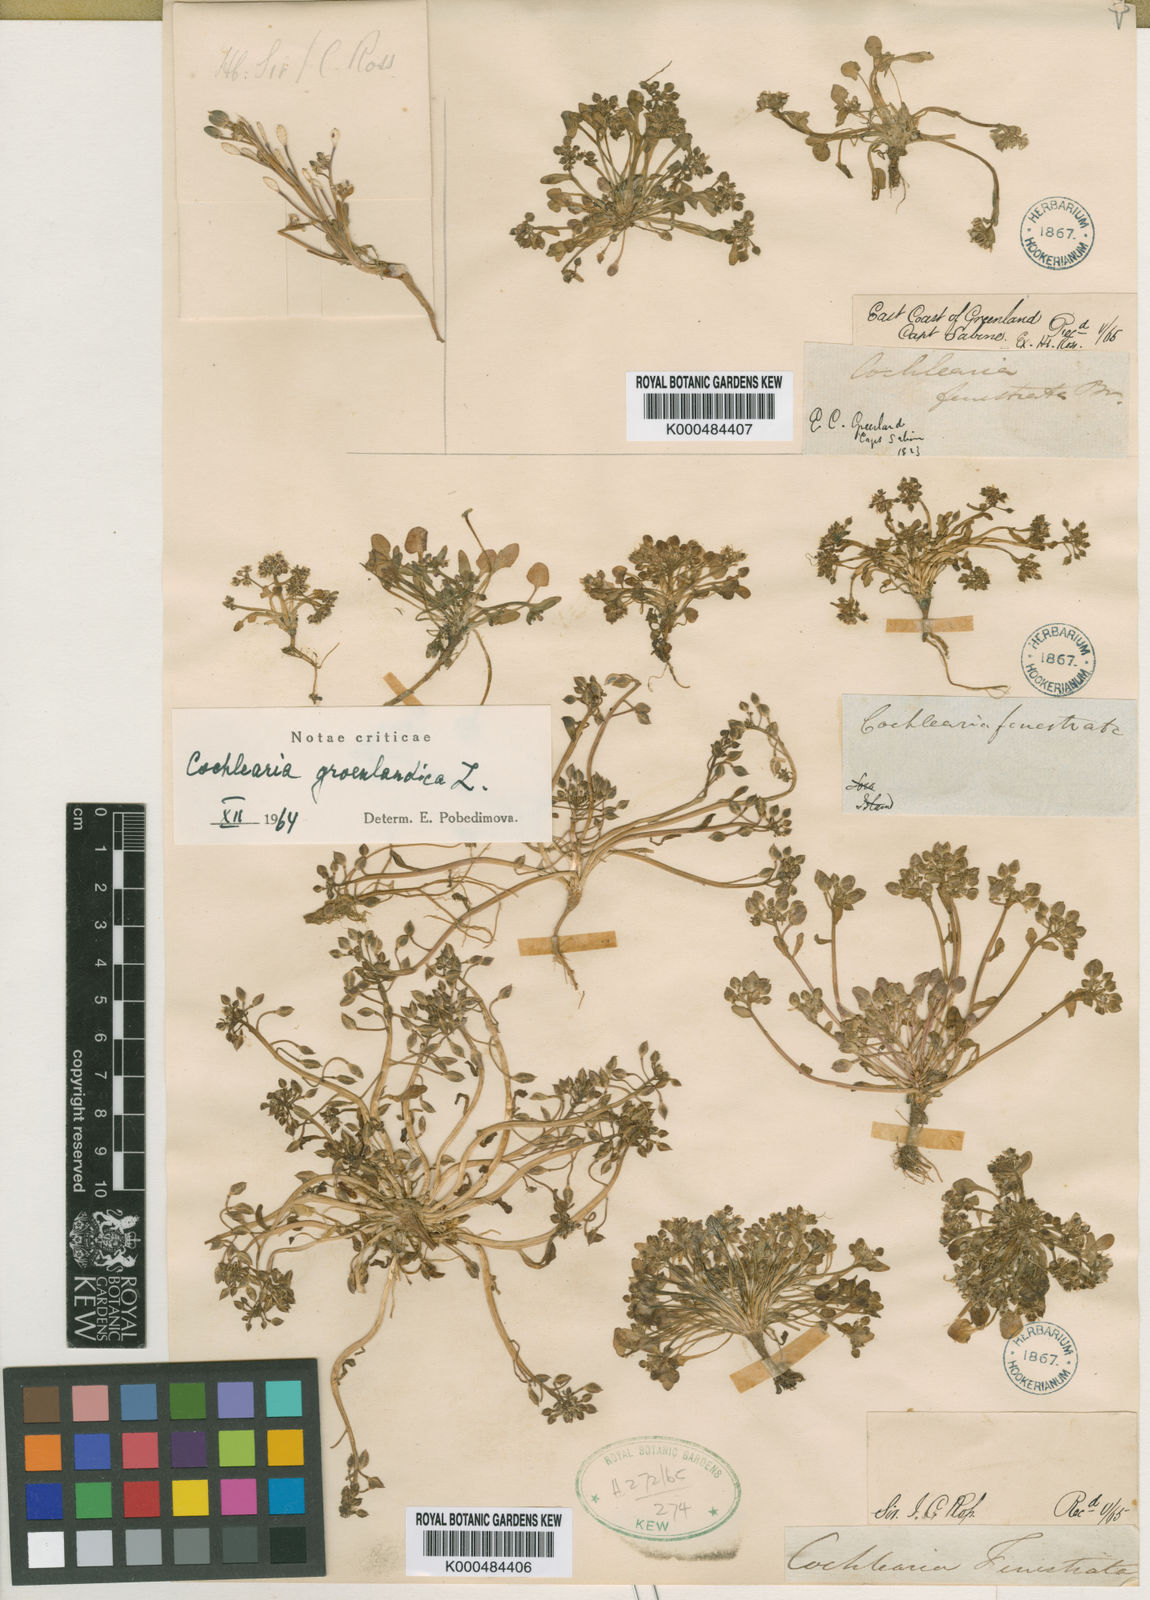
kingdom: Plantae
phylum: Tracheophyta
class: Magnoliopsida
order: Brassicales
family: Brassicaceae
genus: Cochlearia
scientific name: Cochlearia groenlandica
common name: Danish scurvygrass
